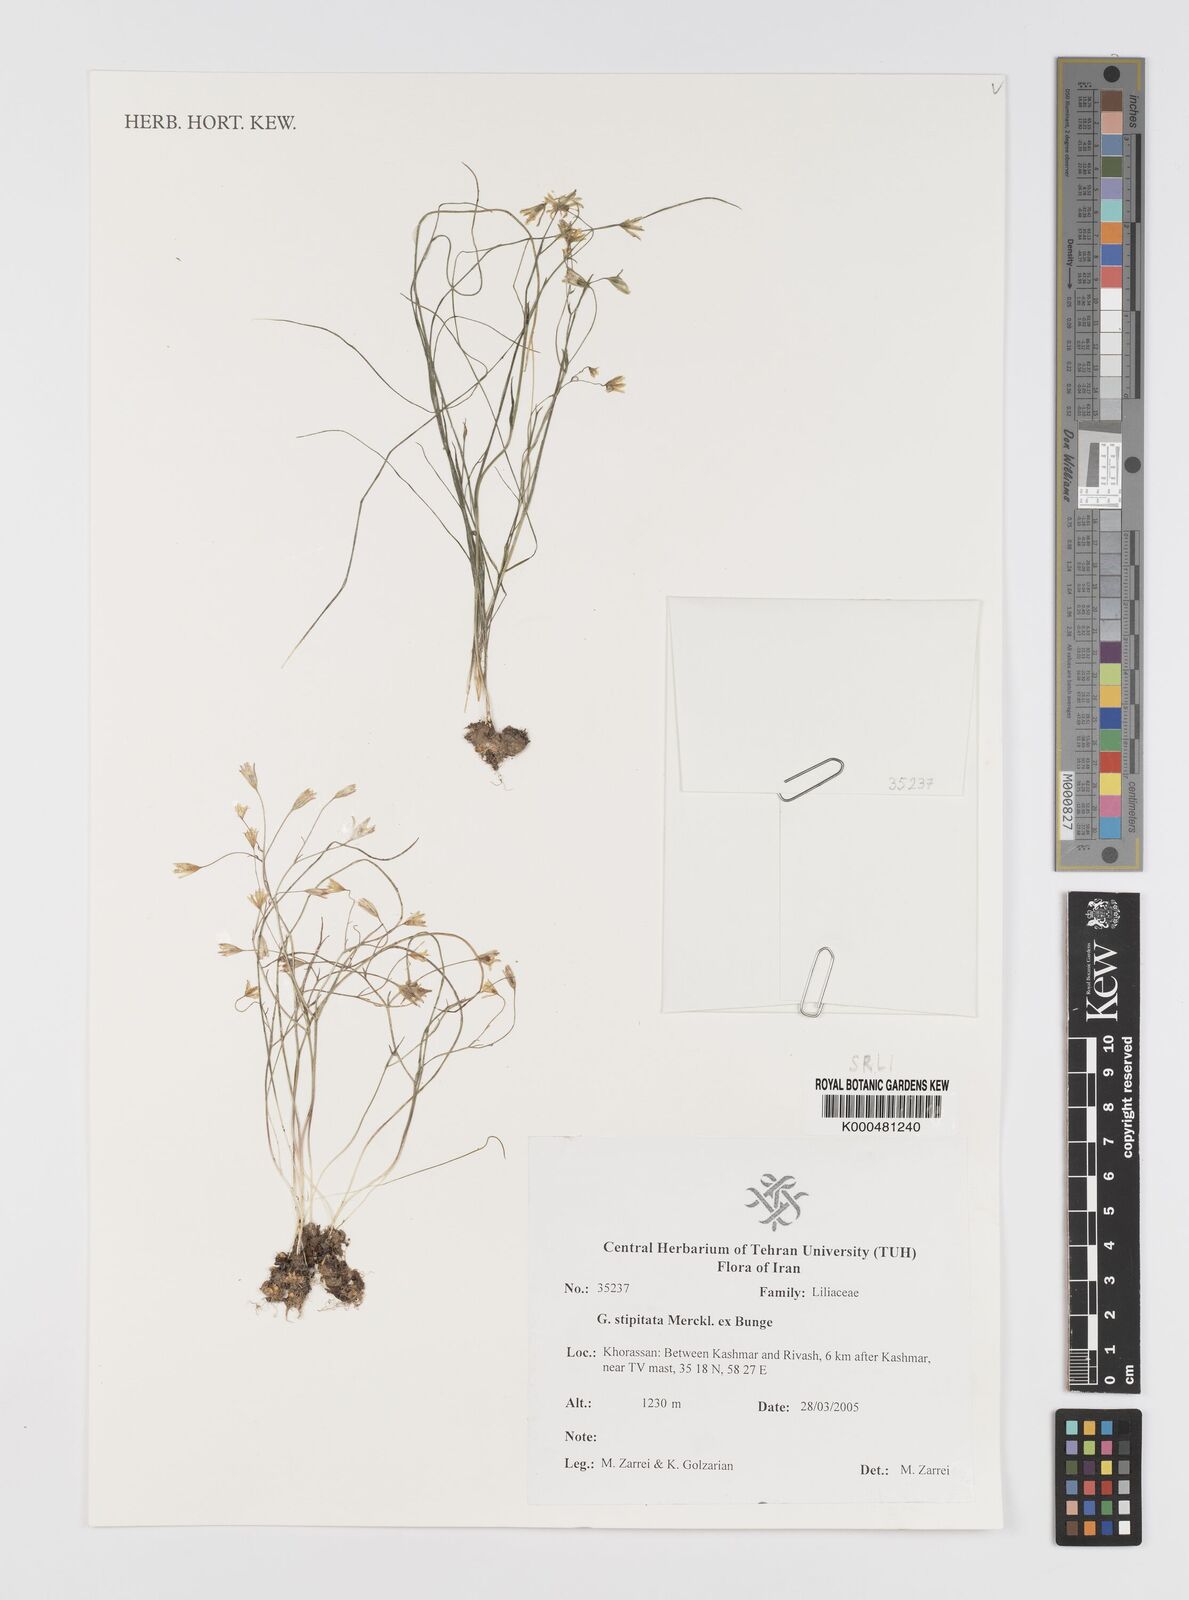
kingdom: Plantae
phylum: Tracheophyta
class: Liliopsida
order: Liliales
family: Liliaceae
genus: Gagea
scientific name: Gagea kunawurensis
